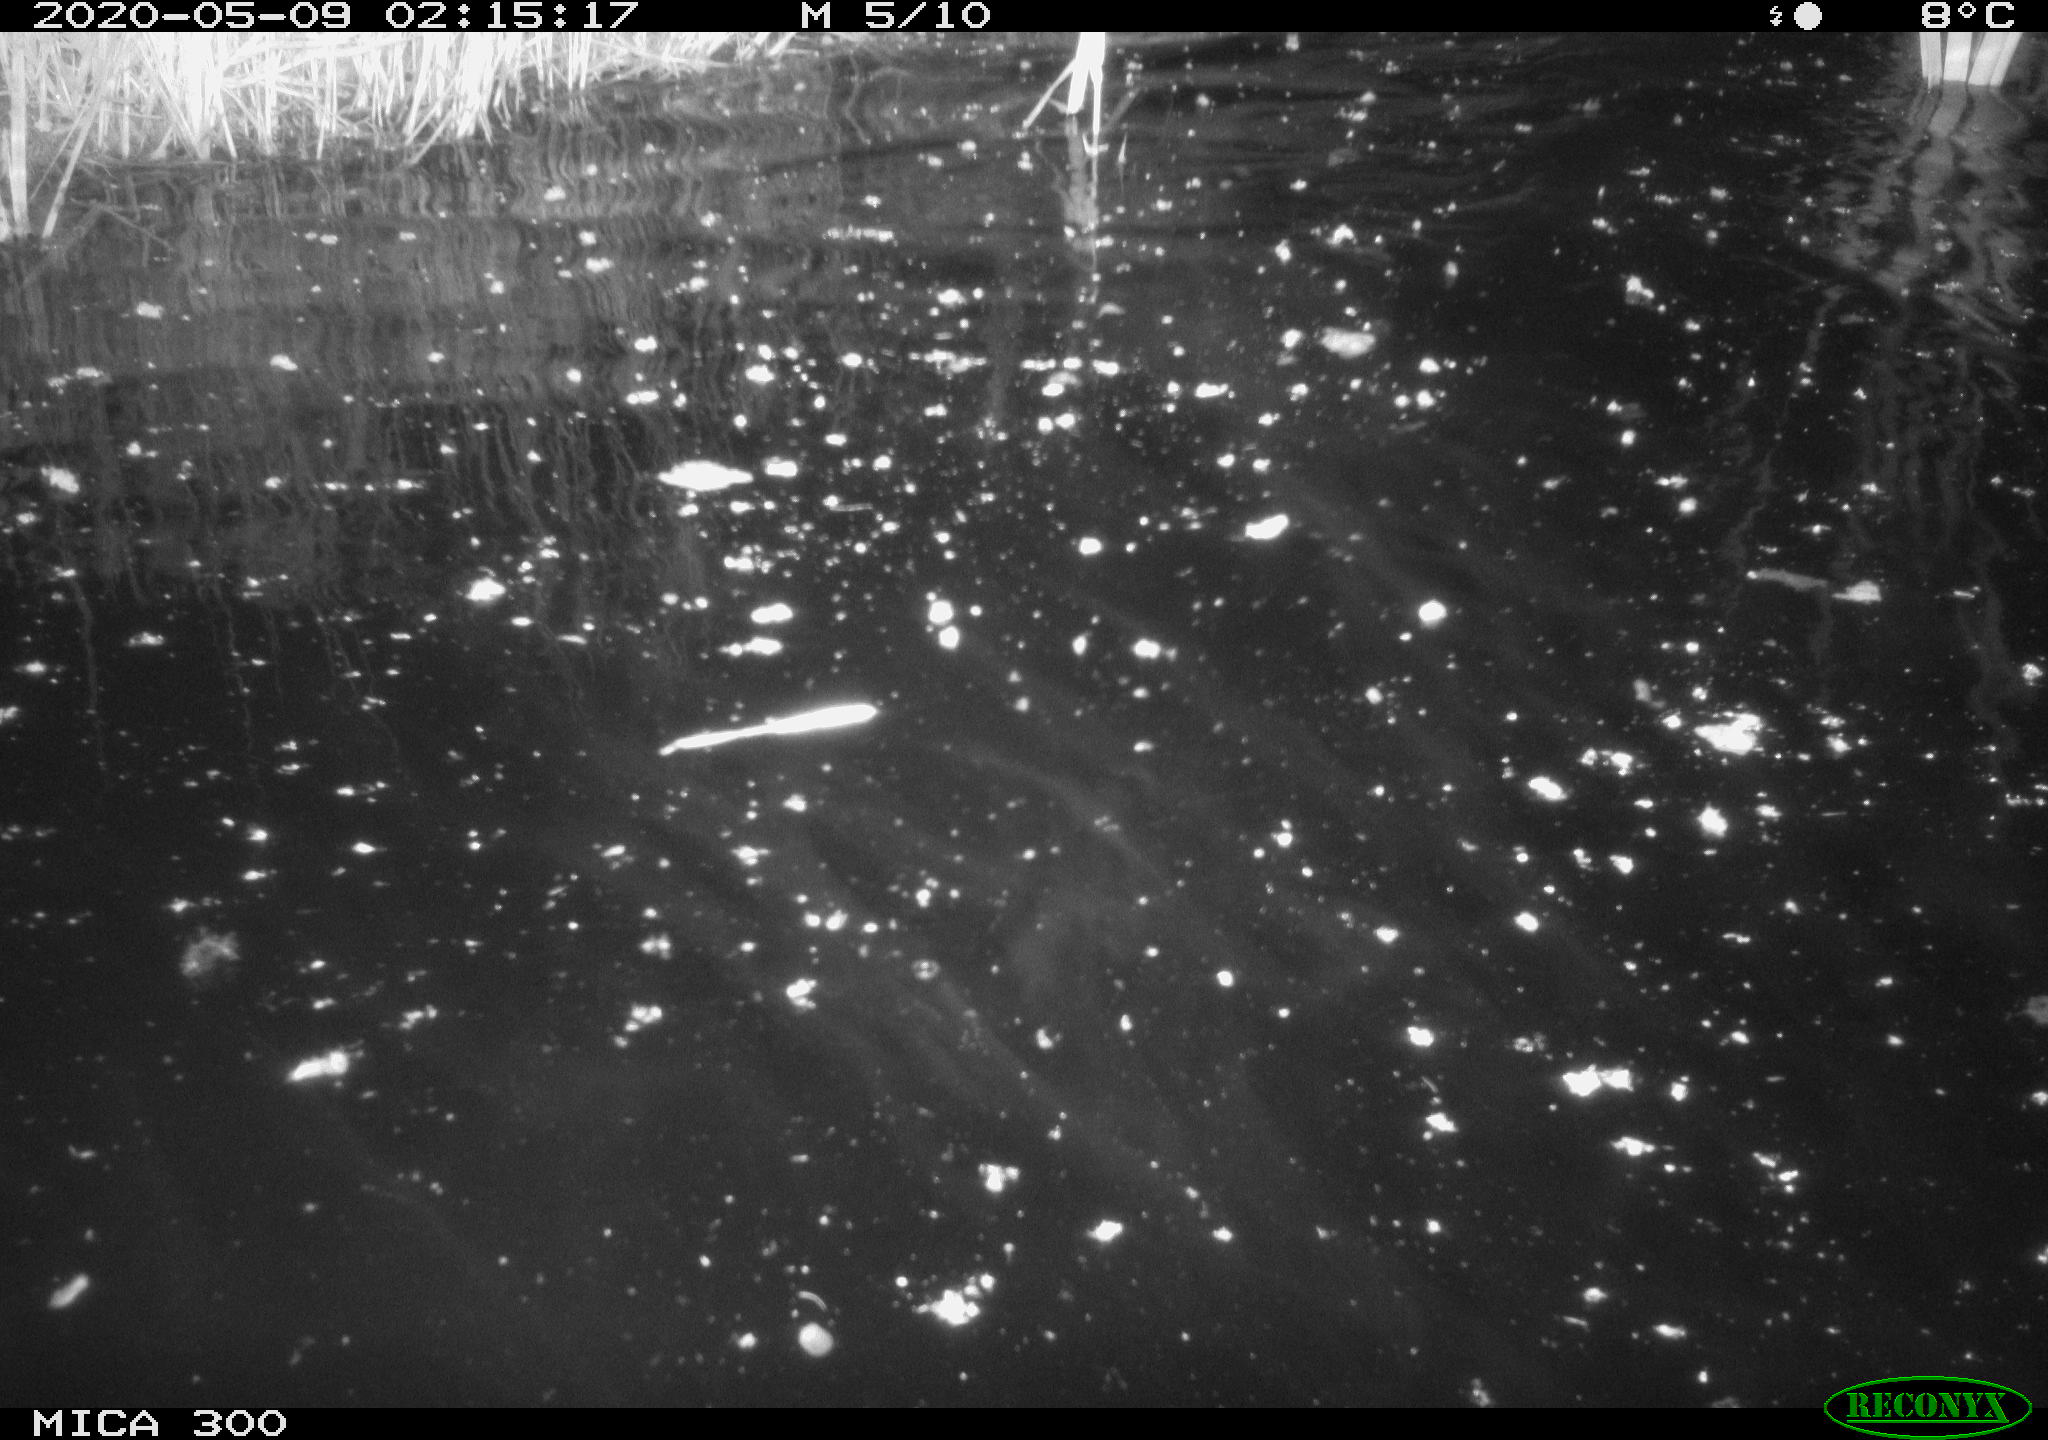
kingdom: Animalia
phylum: Chordata
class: Mammalia
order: Rodentia
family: Castoridae
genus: Castor
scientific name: Castor fiber
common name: Eurasian beaver
